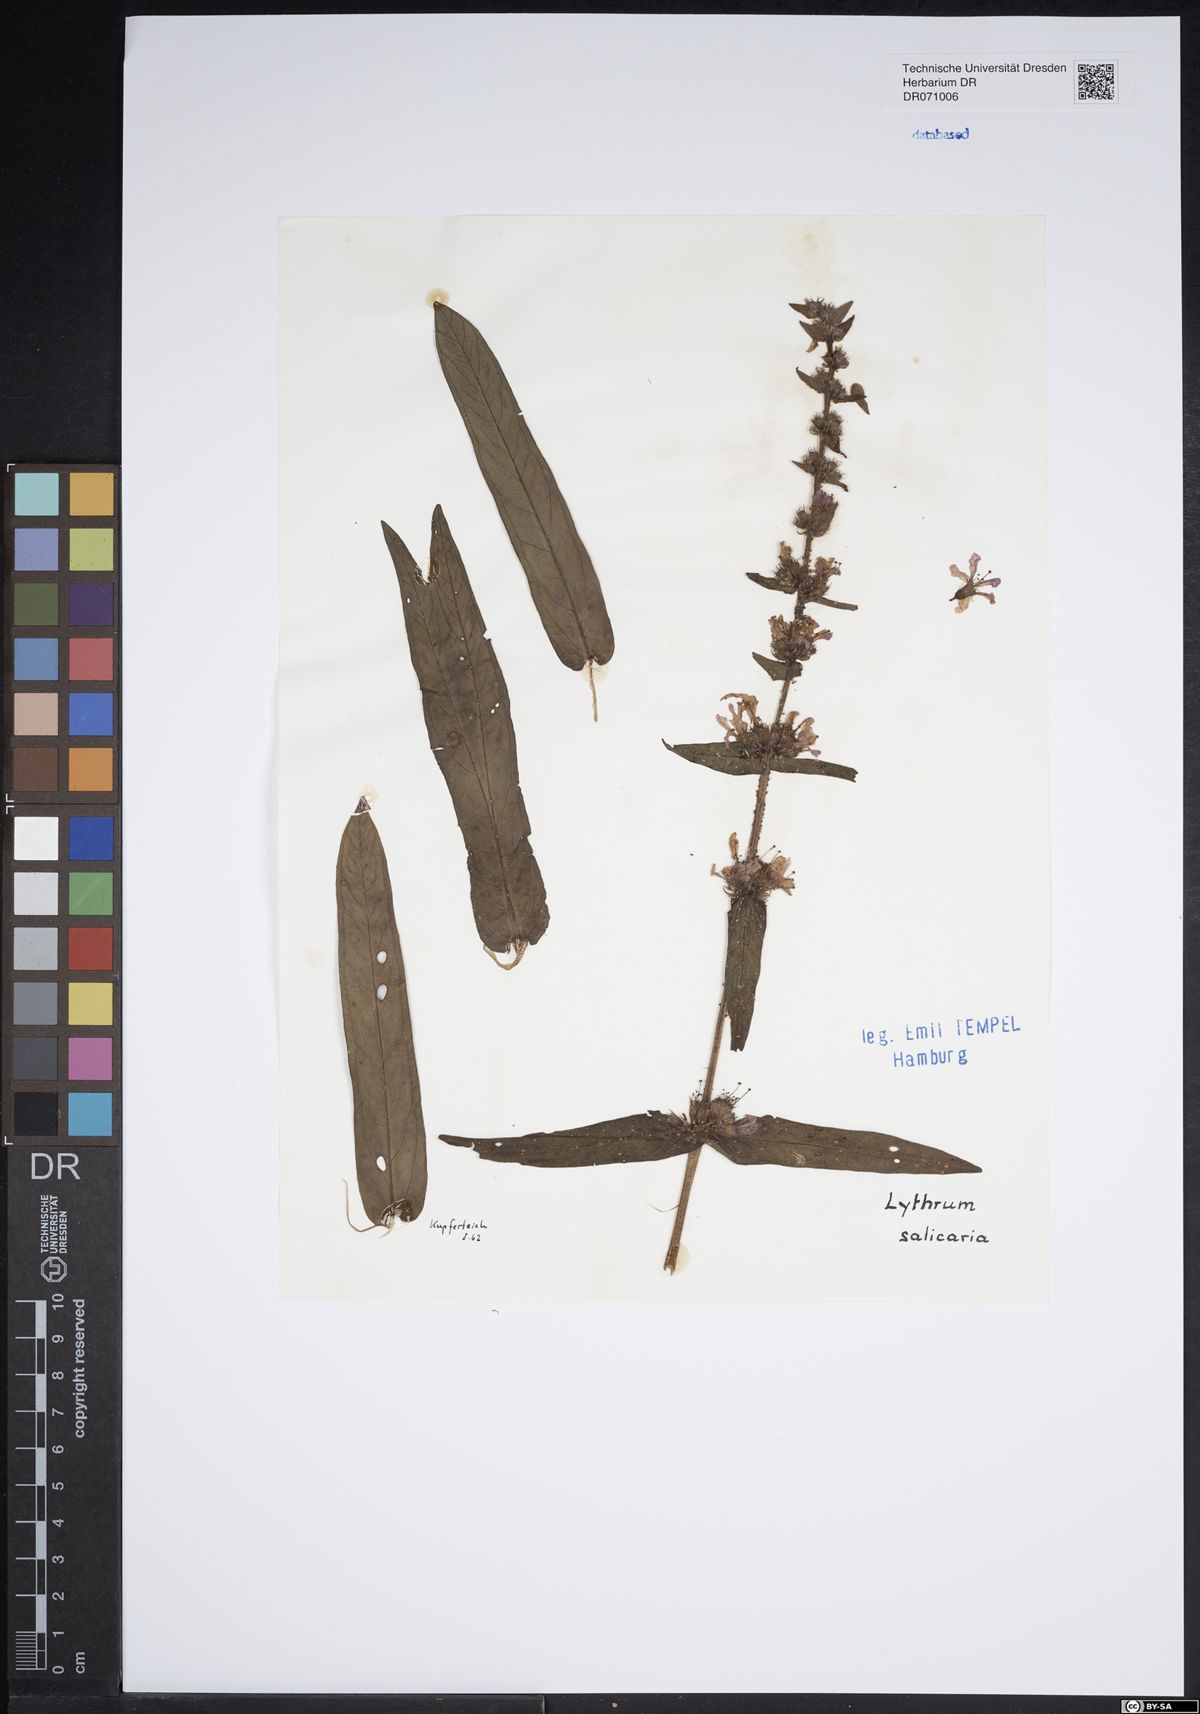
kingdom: Plantae
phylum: Tracheophyta
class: Magnoliopsida
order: Myrtales
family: Lythraceae
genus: Lythrum
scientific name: Lythrum salicaria
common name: Purple loosestrife
